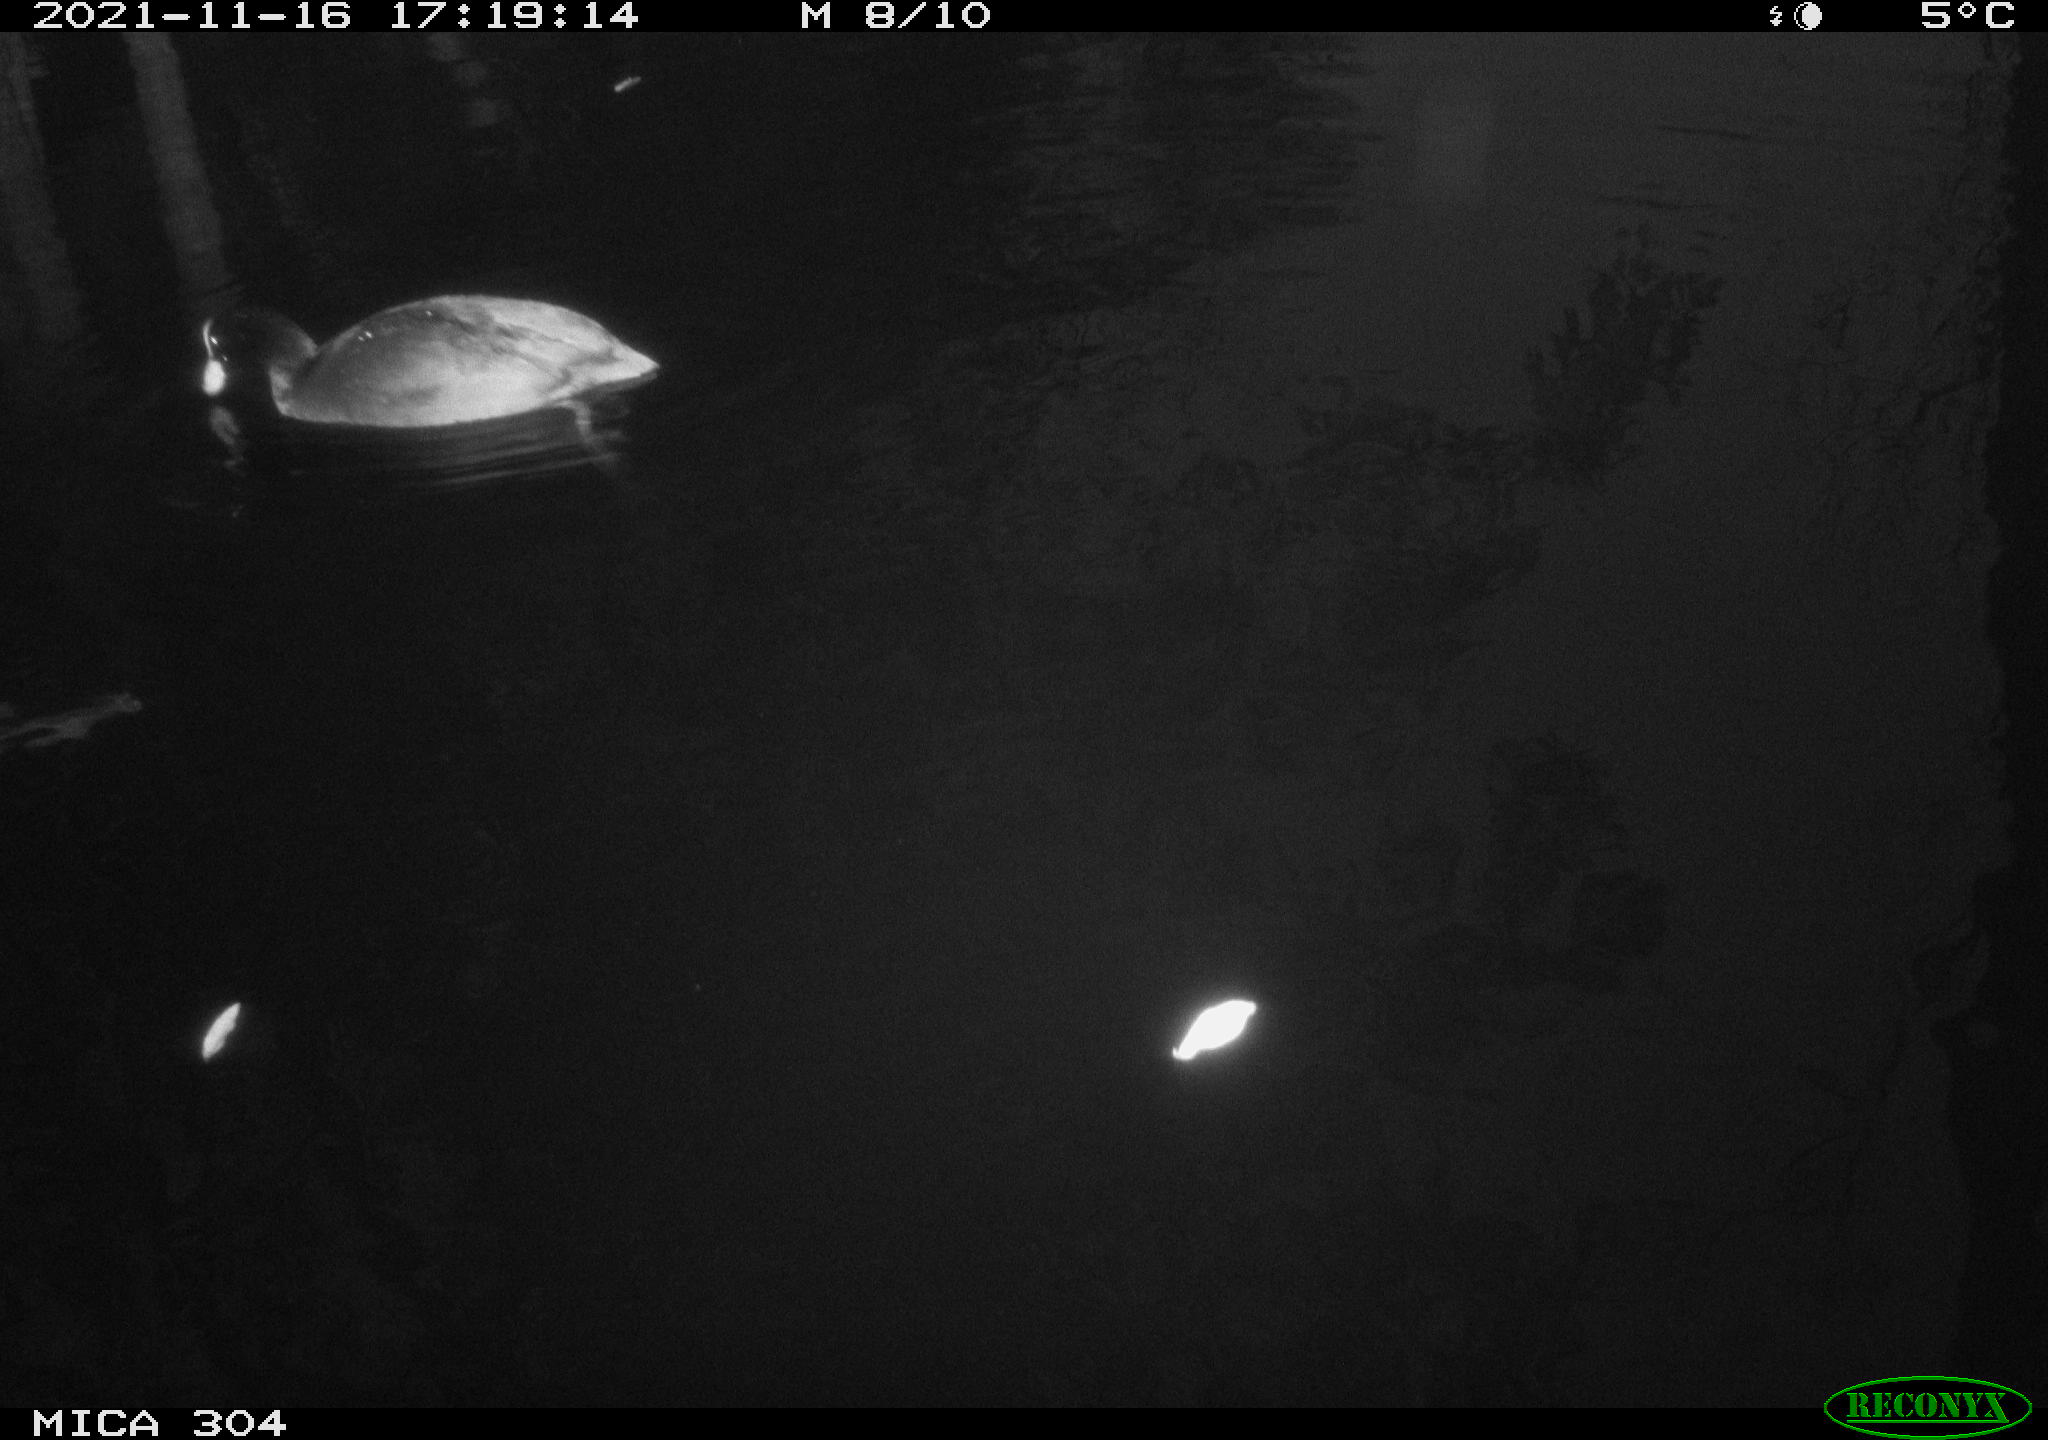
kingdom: Animalia
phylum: Chordata
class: Aves
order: Gruiformes
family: Rallidae
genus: Fulica
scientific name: Fulica atra
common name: Eurasian coot
